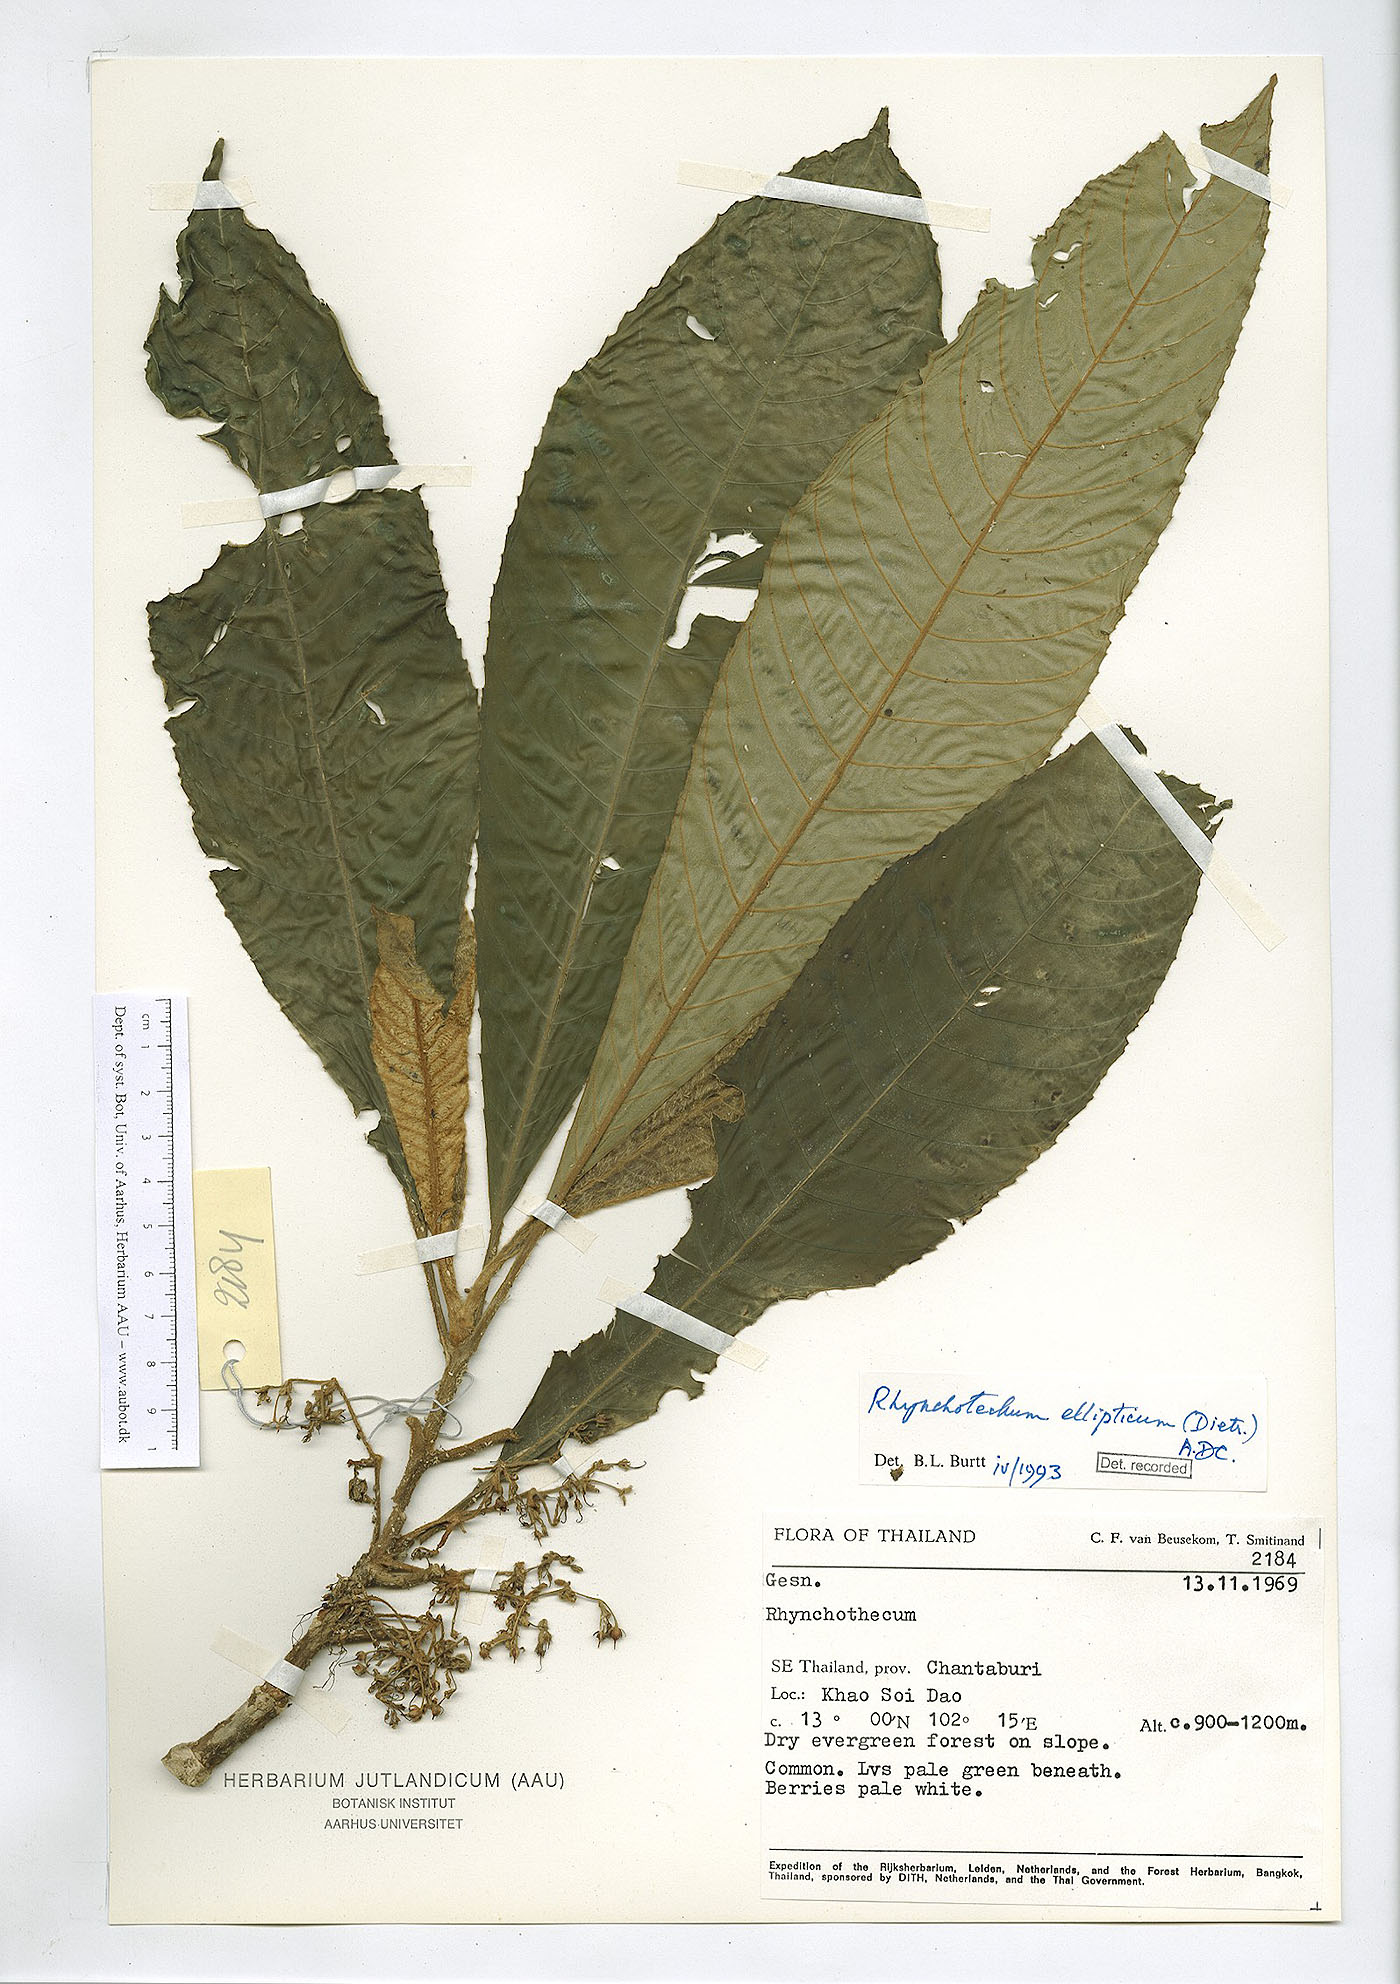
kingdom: Plantae
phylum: Tracheophyta
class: Magnoliopsida
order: Lamiales
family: Gesneriaceae
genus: Rhynchotechum
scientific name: Rhynchotechum obovatum
